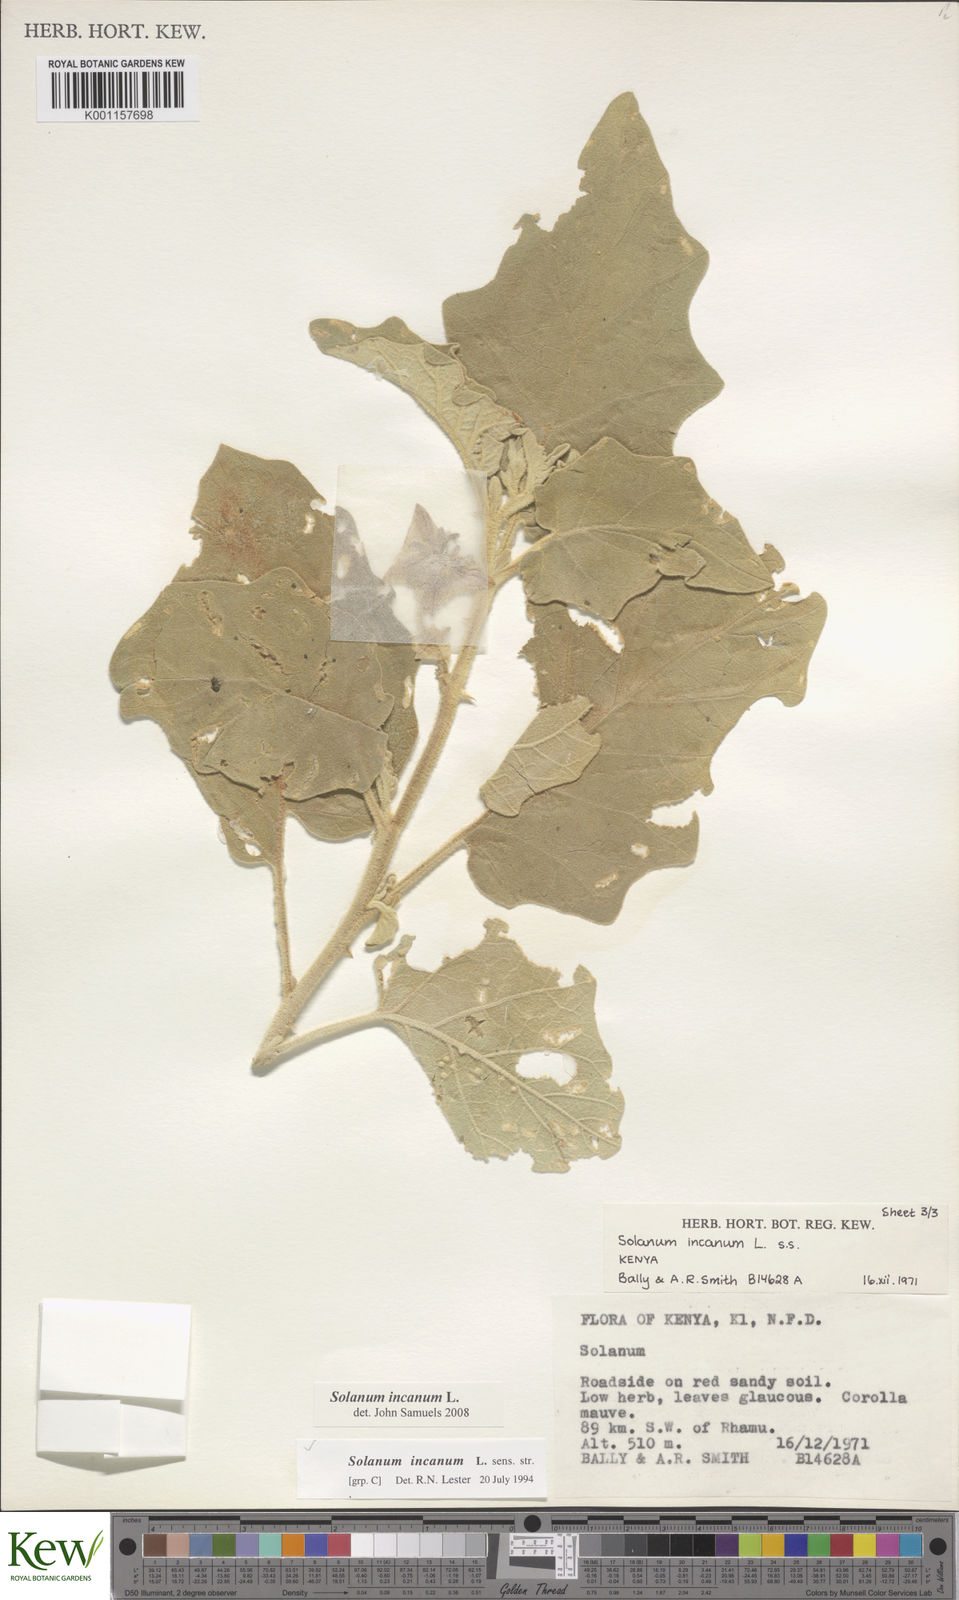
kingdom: Plantae
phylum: Tracheophyta
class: Magnoliopsida
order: Solanales
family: Solanaceae
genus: Solanum
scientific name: Solanum incanum
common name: Bitter apple
